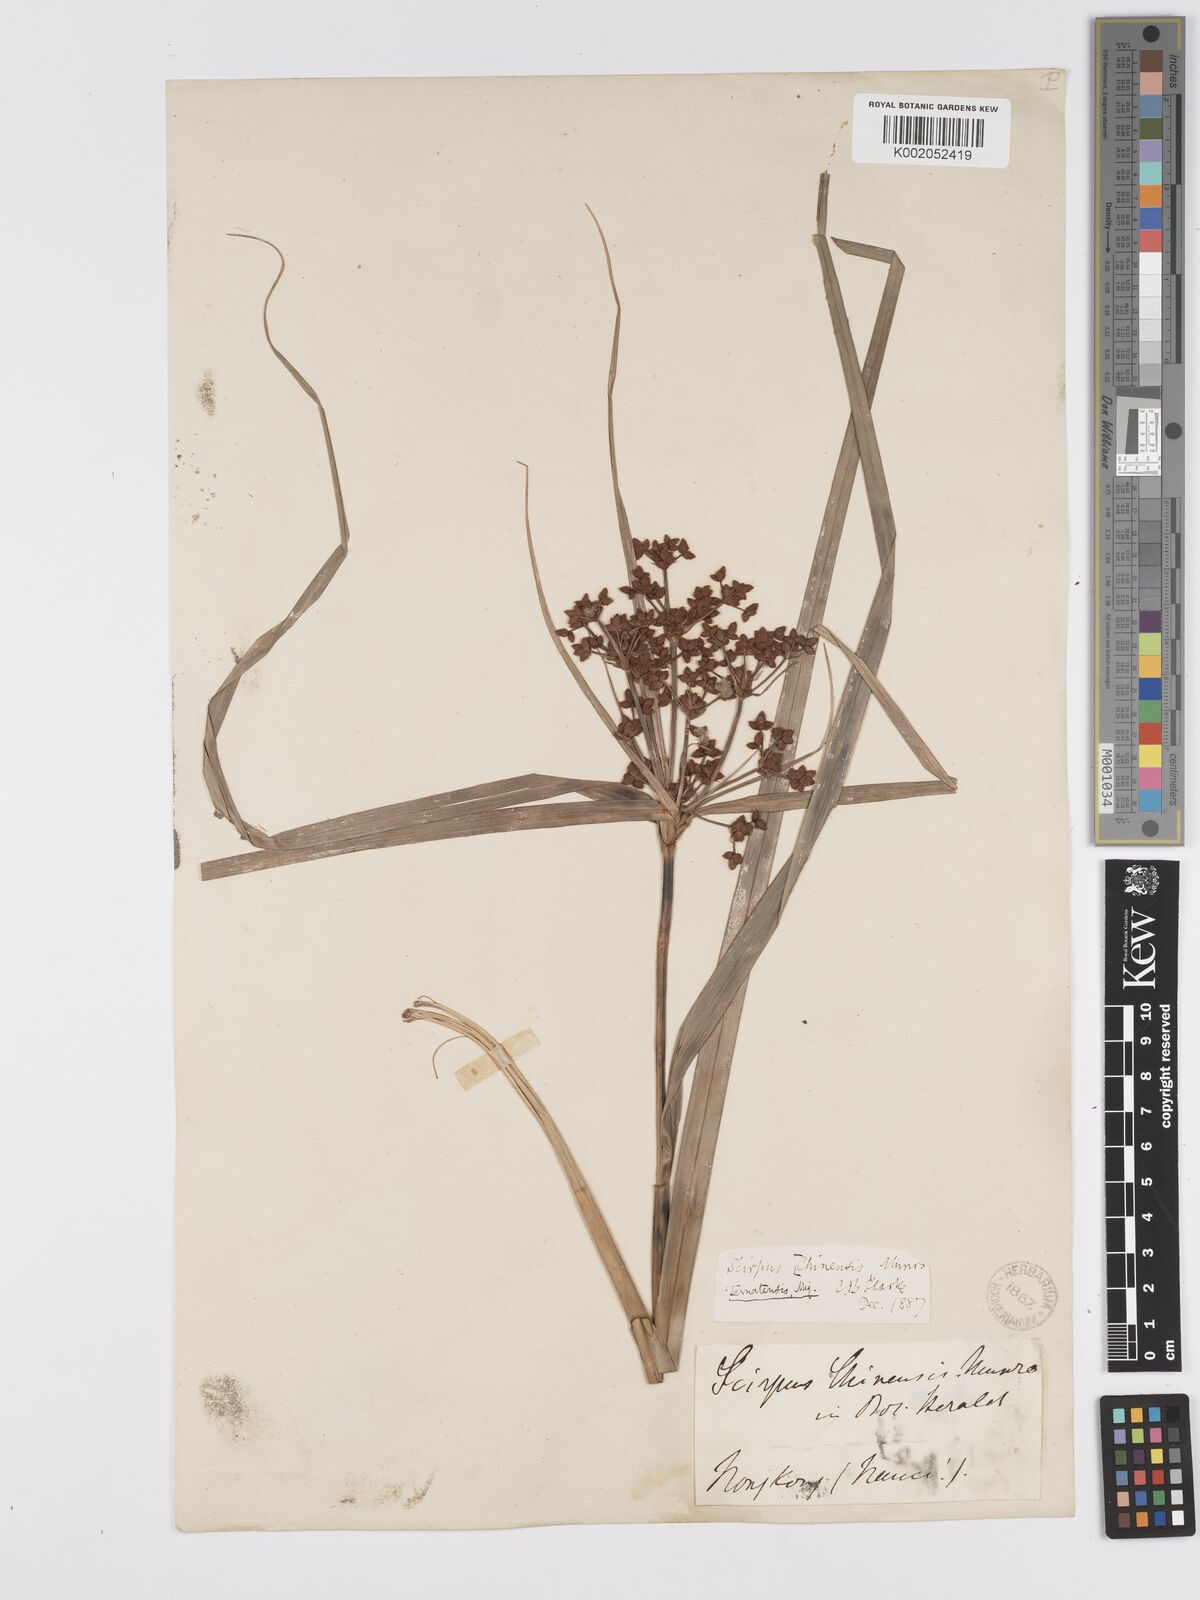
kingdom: Plantae
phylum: Tracheophyta
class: Liliopsida
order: Poales
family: Cyperaceae
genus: Scirpus
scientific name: Scirpus ternatanus
